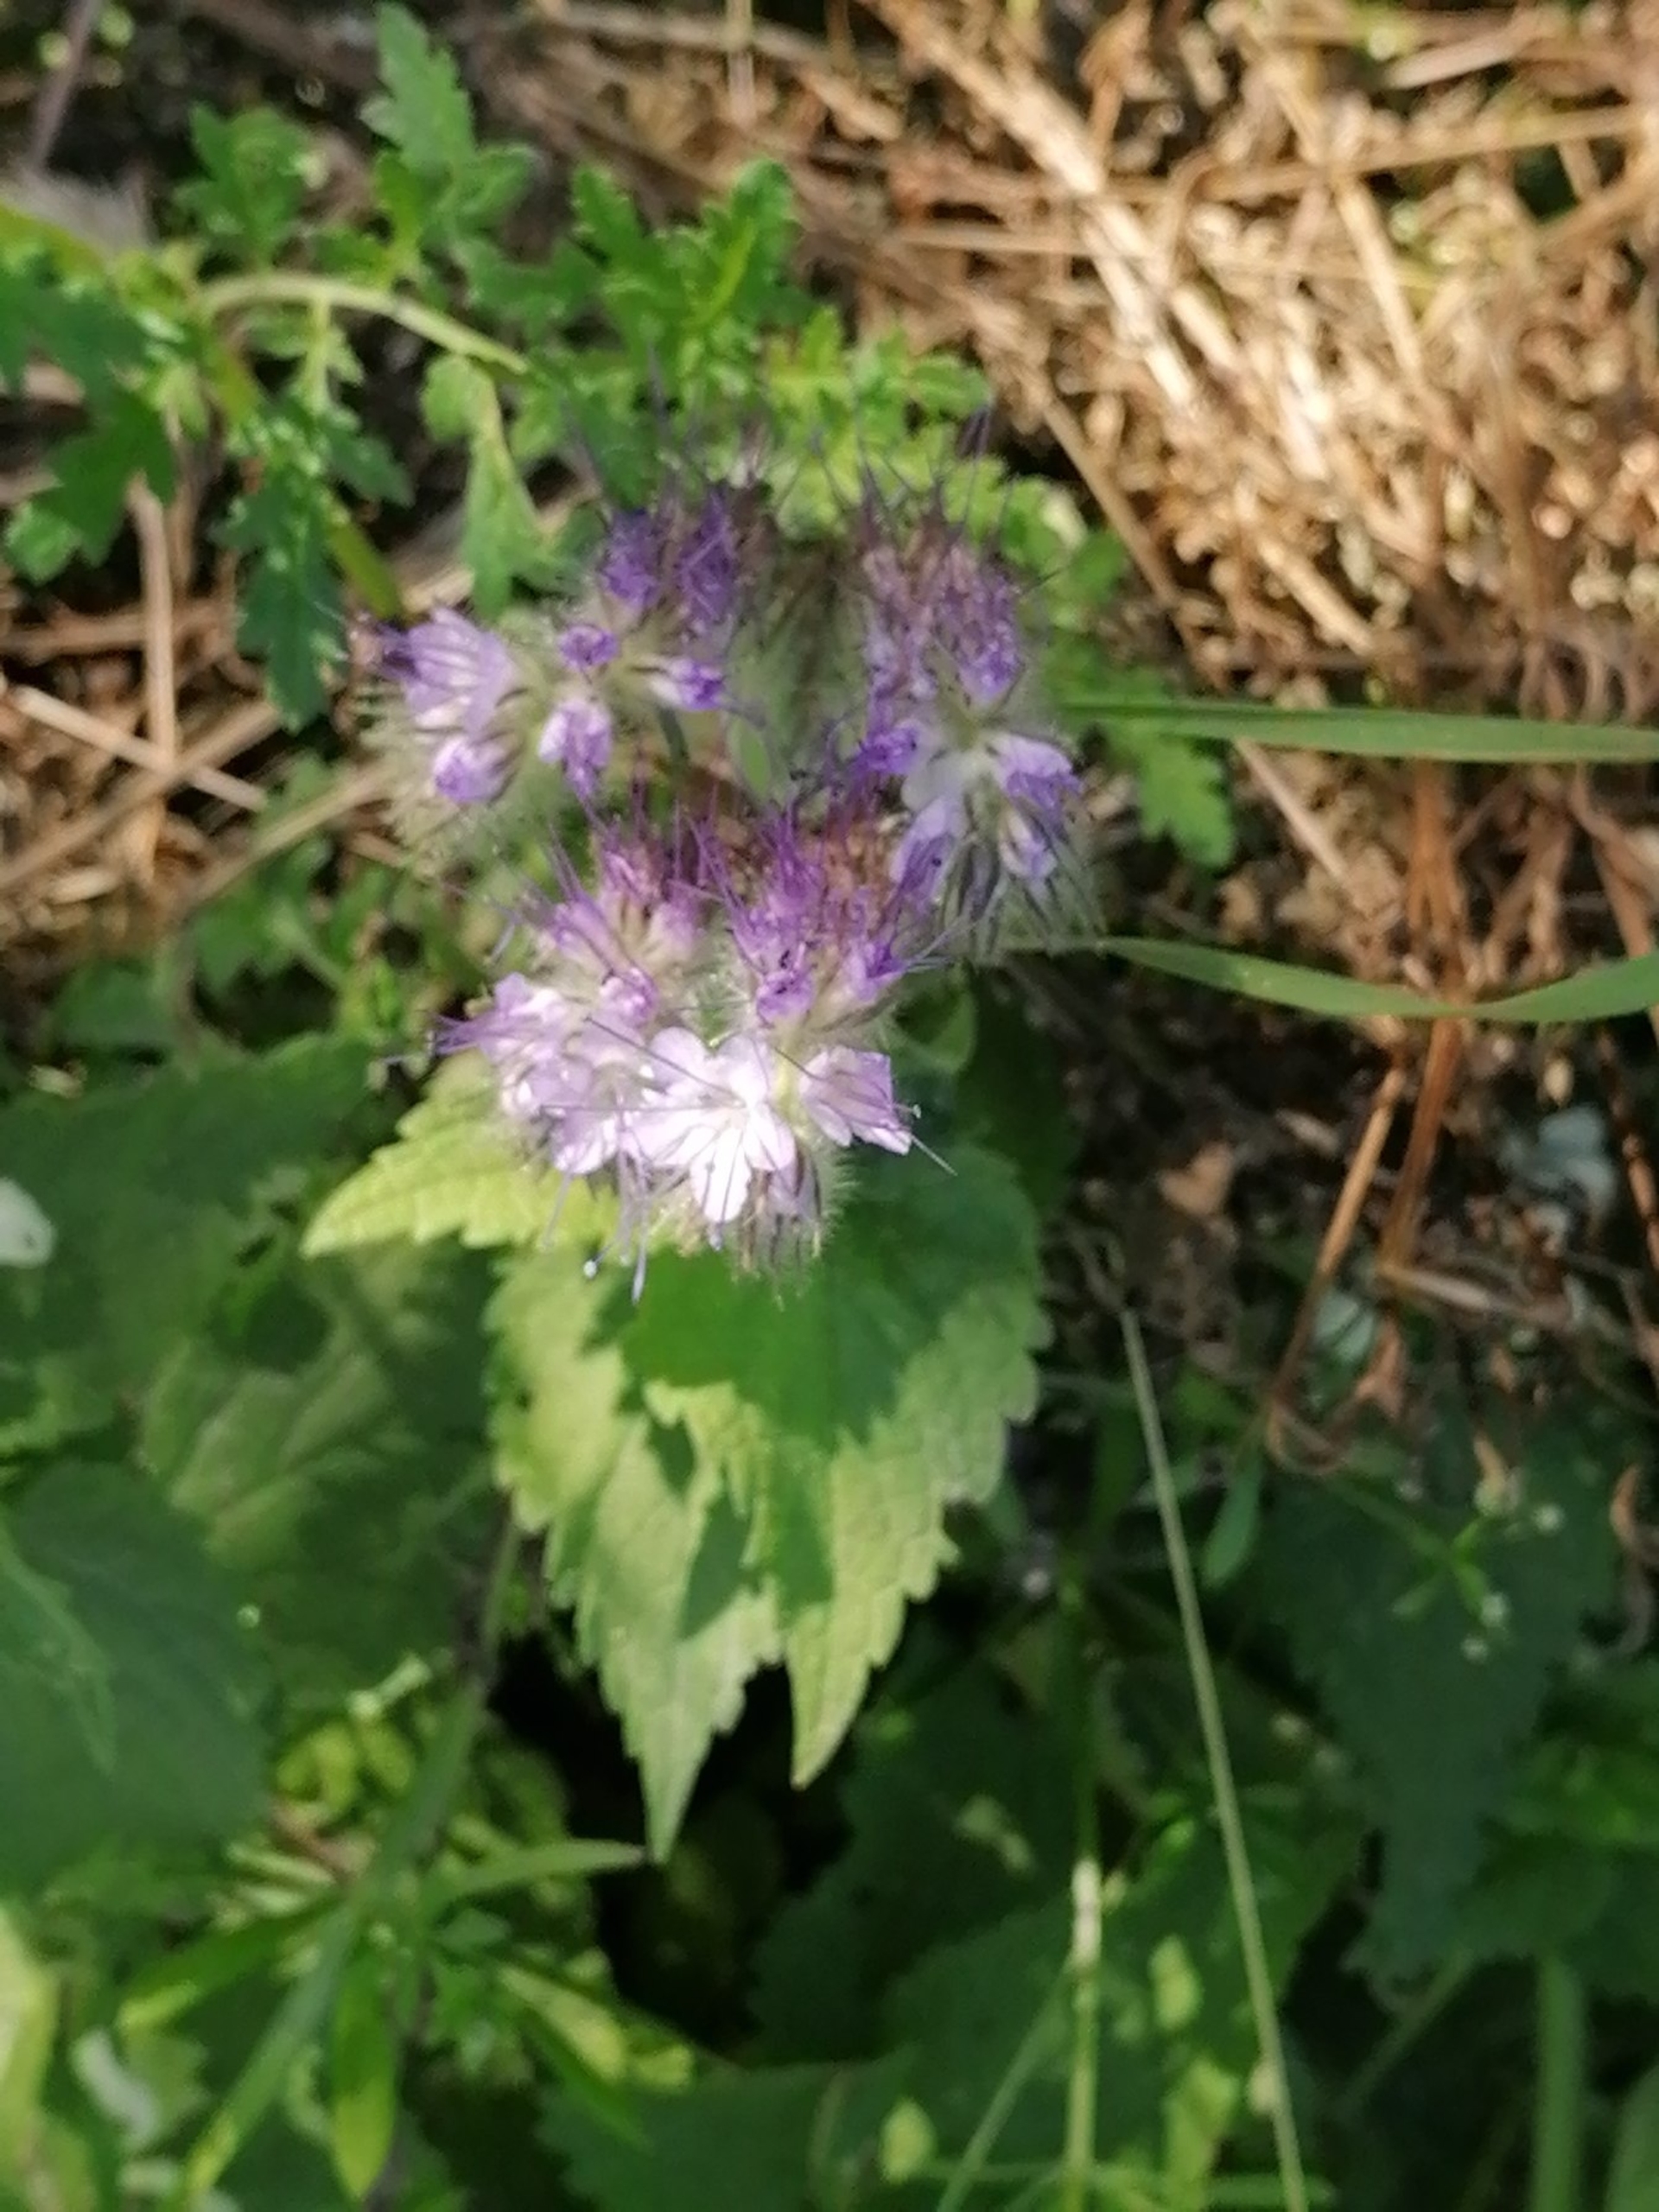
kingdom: Plantae
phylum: Tracheophyta
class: Magnoliopsida
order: Boraginales
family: Hydrophyllaceae
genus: Phacelia
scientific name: Phacelia tanacetifolia
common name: Honningurt
